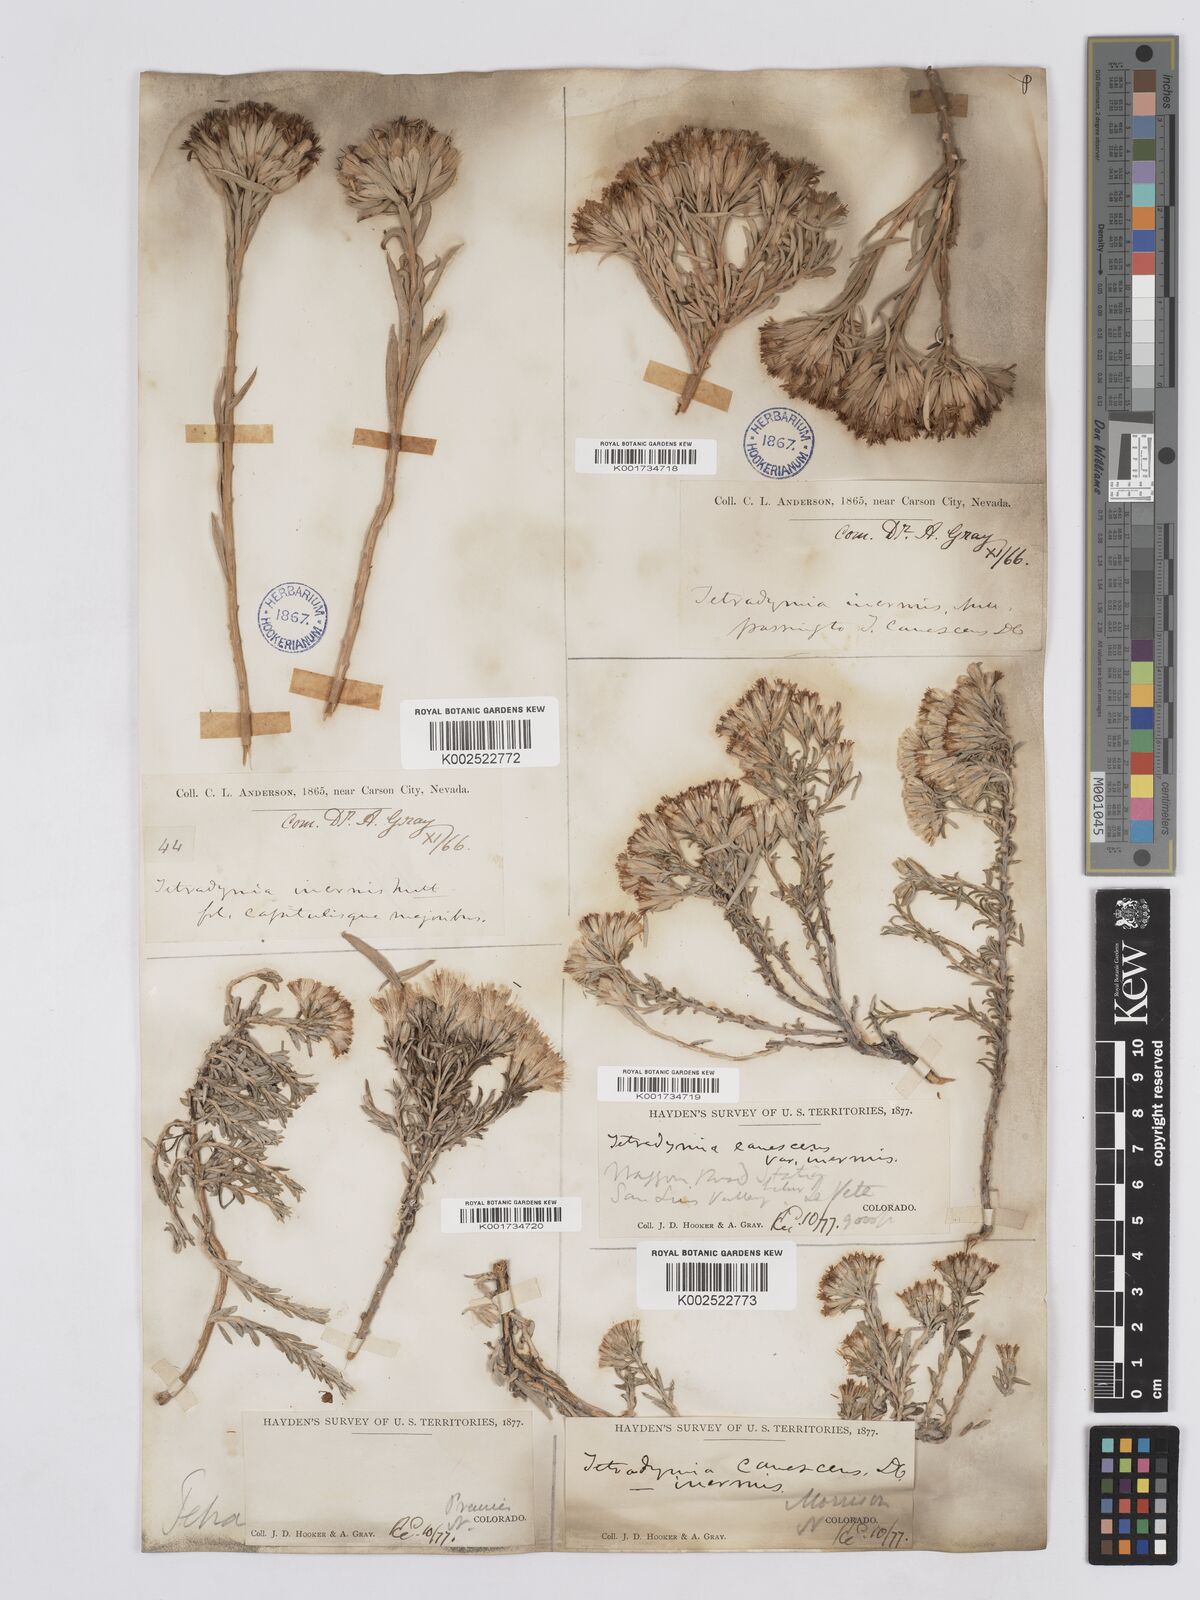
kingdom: Plantae
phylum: Tracheophyta
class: Magnoliopsida
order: Asterales
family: Asteraceae
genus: Tetradymia
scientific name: Tetradymia canescens
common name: Spineless horsebrush
